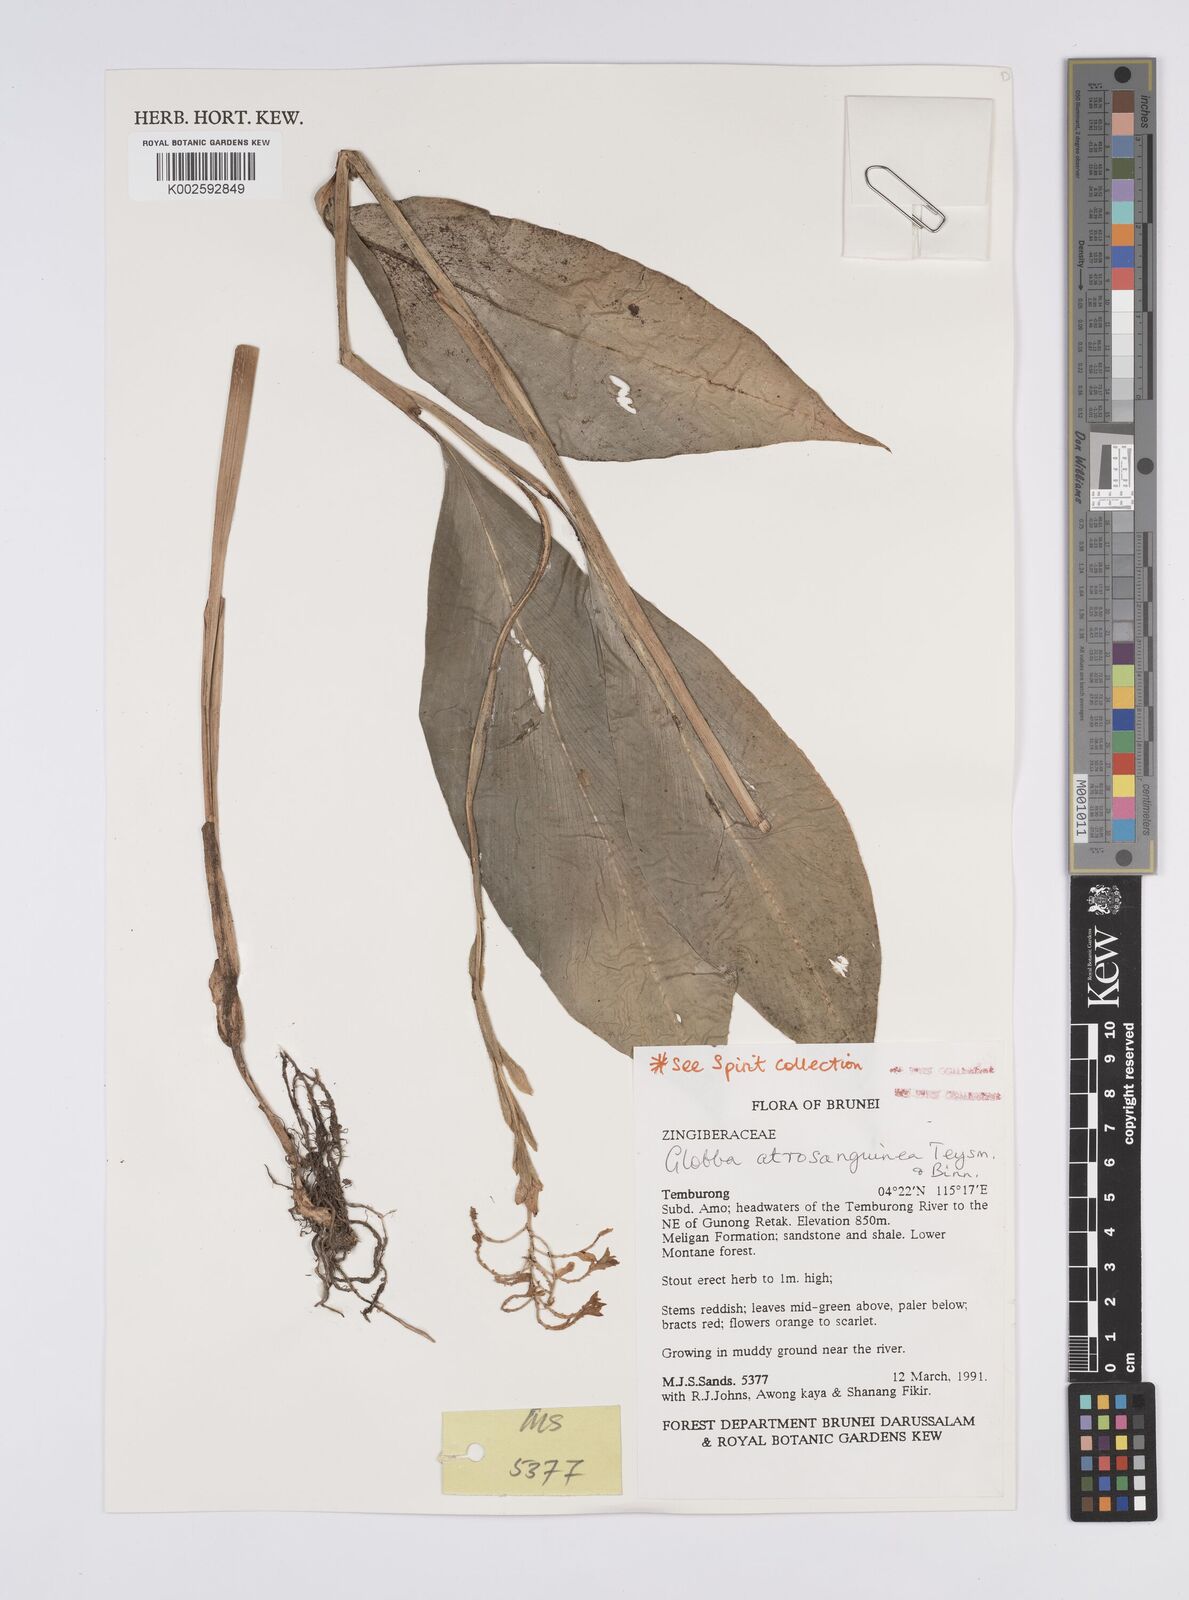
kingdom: Plantae
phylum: Tracheophyta
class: Liliopsida
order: Zingiberales
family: Zingiberaceae
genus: Globba
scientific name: Globba atrosanguinea
